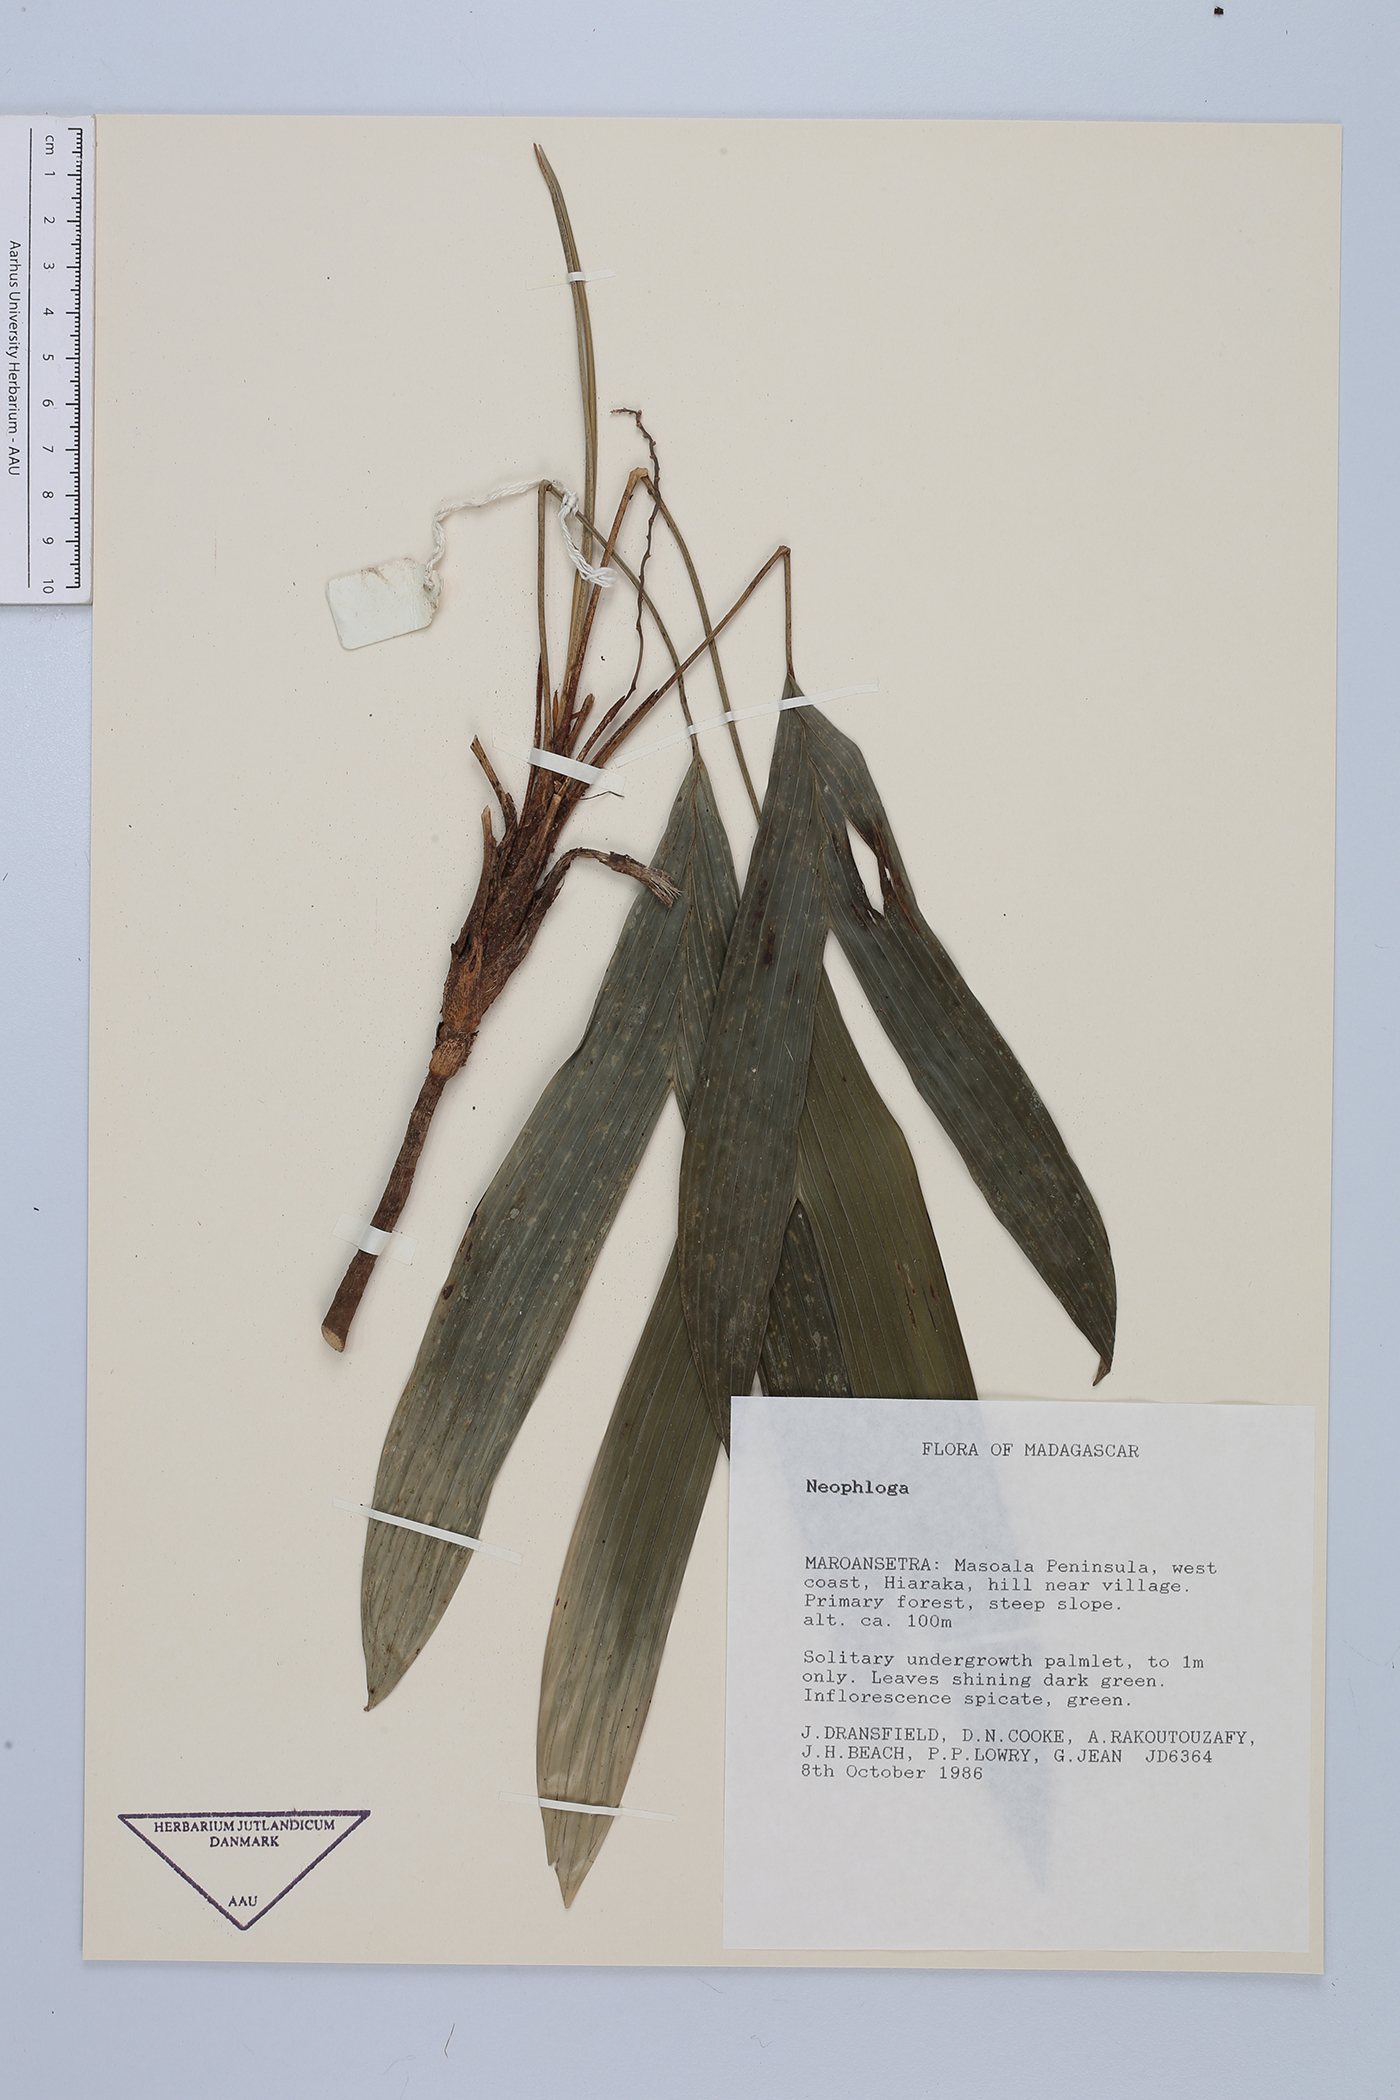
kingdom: Plantae
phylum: Tracheophyta
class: Liliopsida
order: Arecales
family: Arecaceae
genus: Dypsis
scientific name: Dypsis
